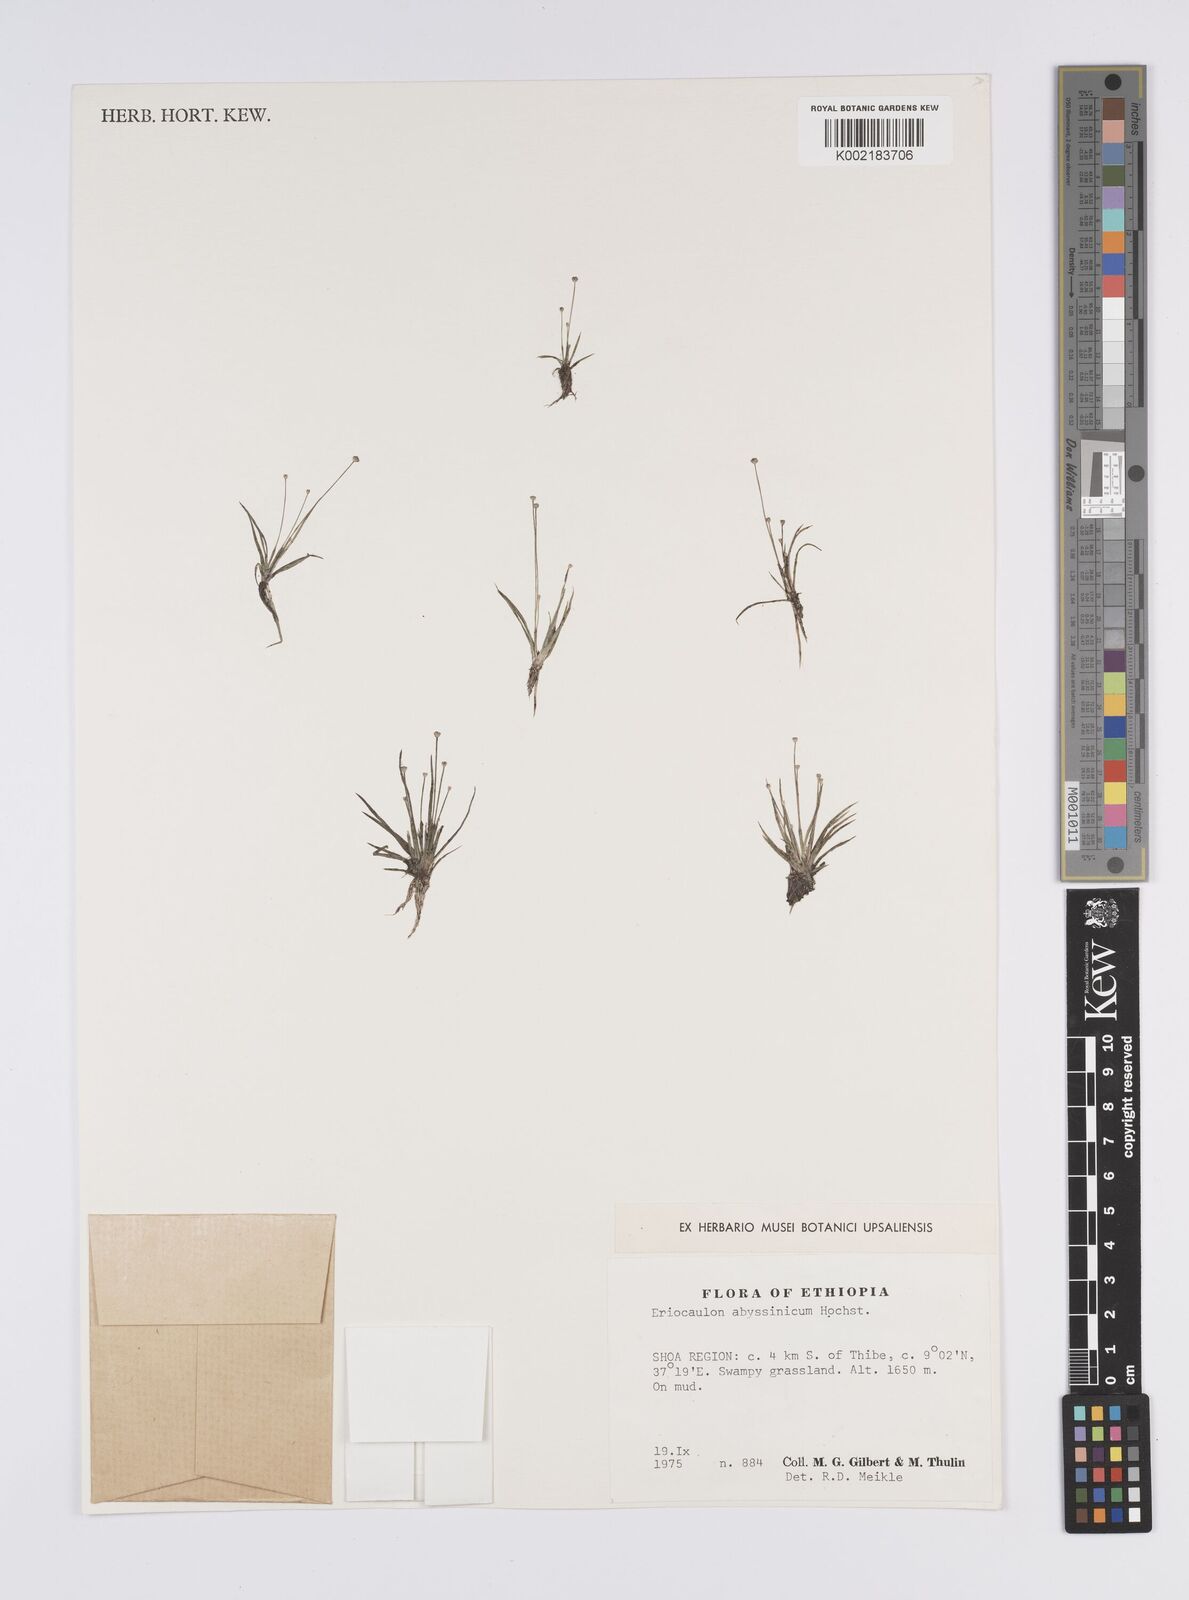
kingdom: Plantae
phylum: Tracheophyta
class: Liliopsida
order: Poales
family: Eriocaulaceae
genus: Eriocaulon
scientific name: Eriocaulon abyssinicum
